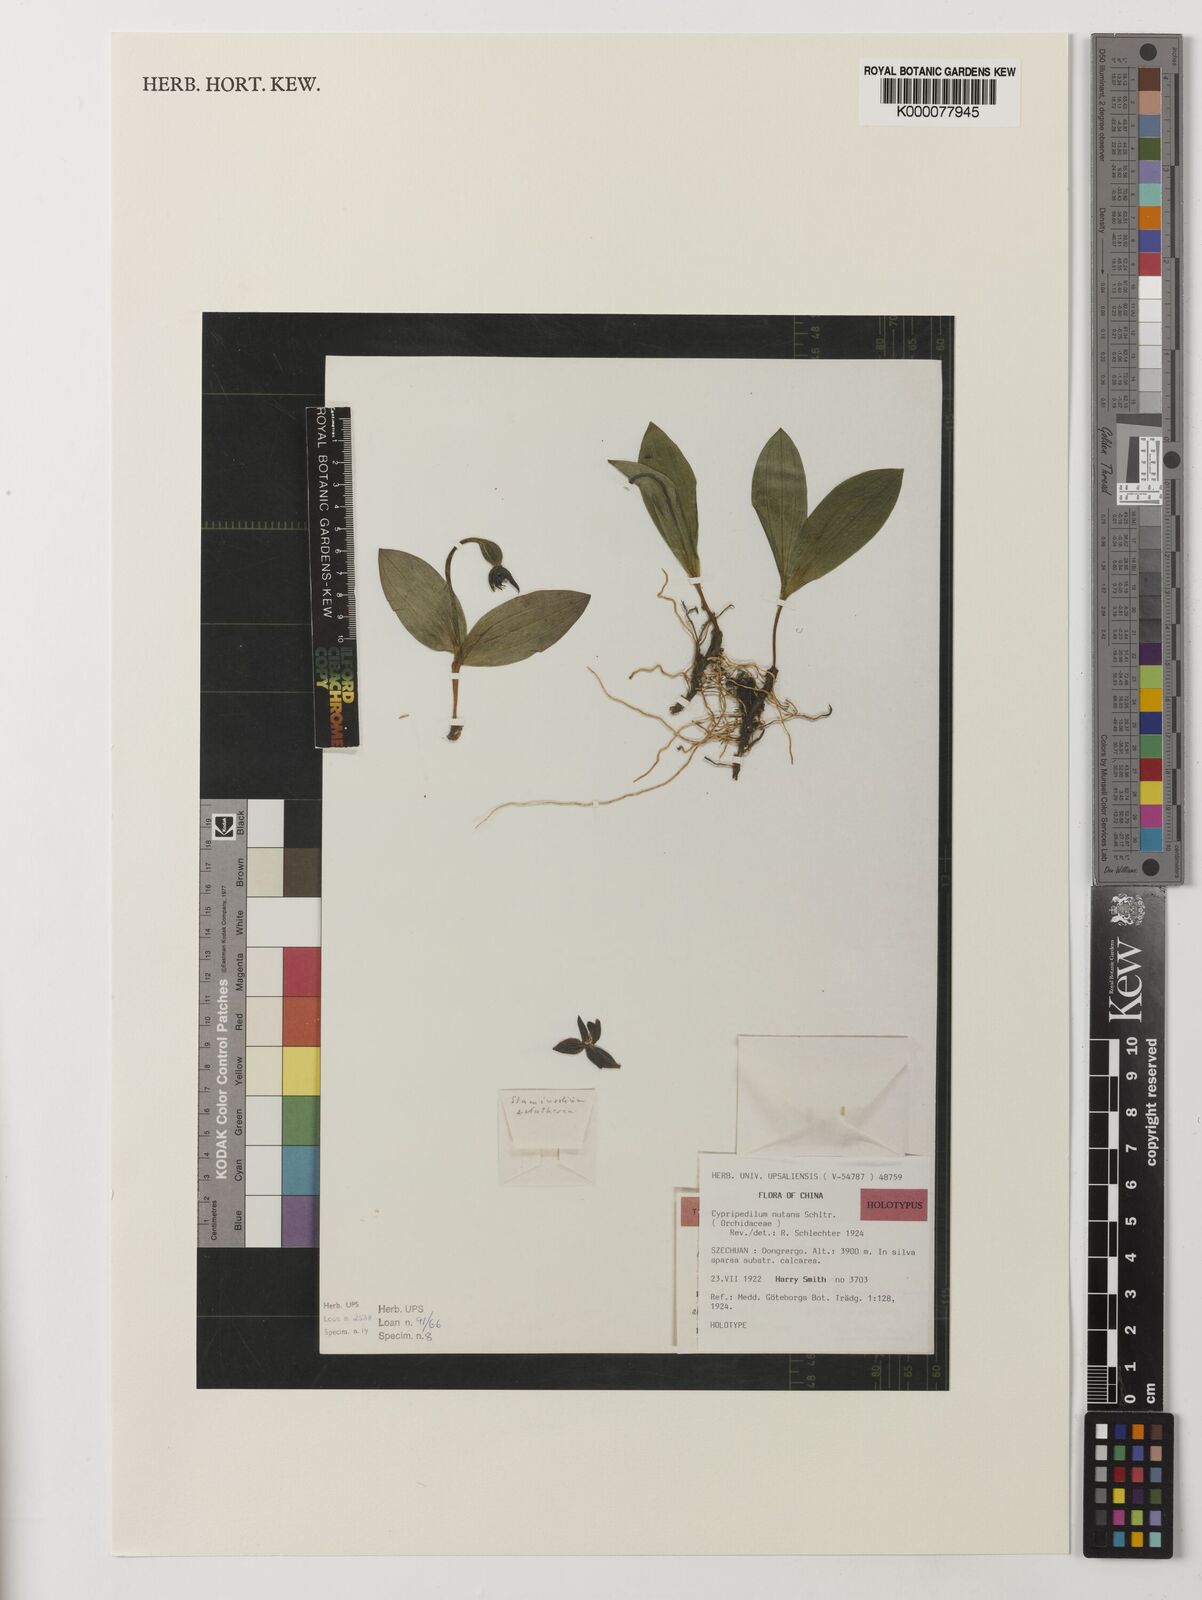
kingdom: Plantae
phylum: Tracheophyta
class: Liliopsida
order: Asparagales
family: Orchidaceae
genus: Cypripedium
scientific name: Cypripedium bardolphianum
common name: Bardolph's cypripedium
